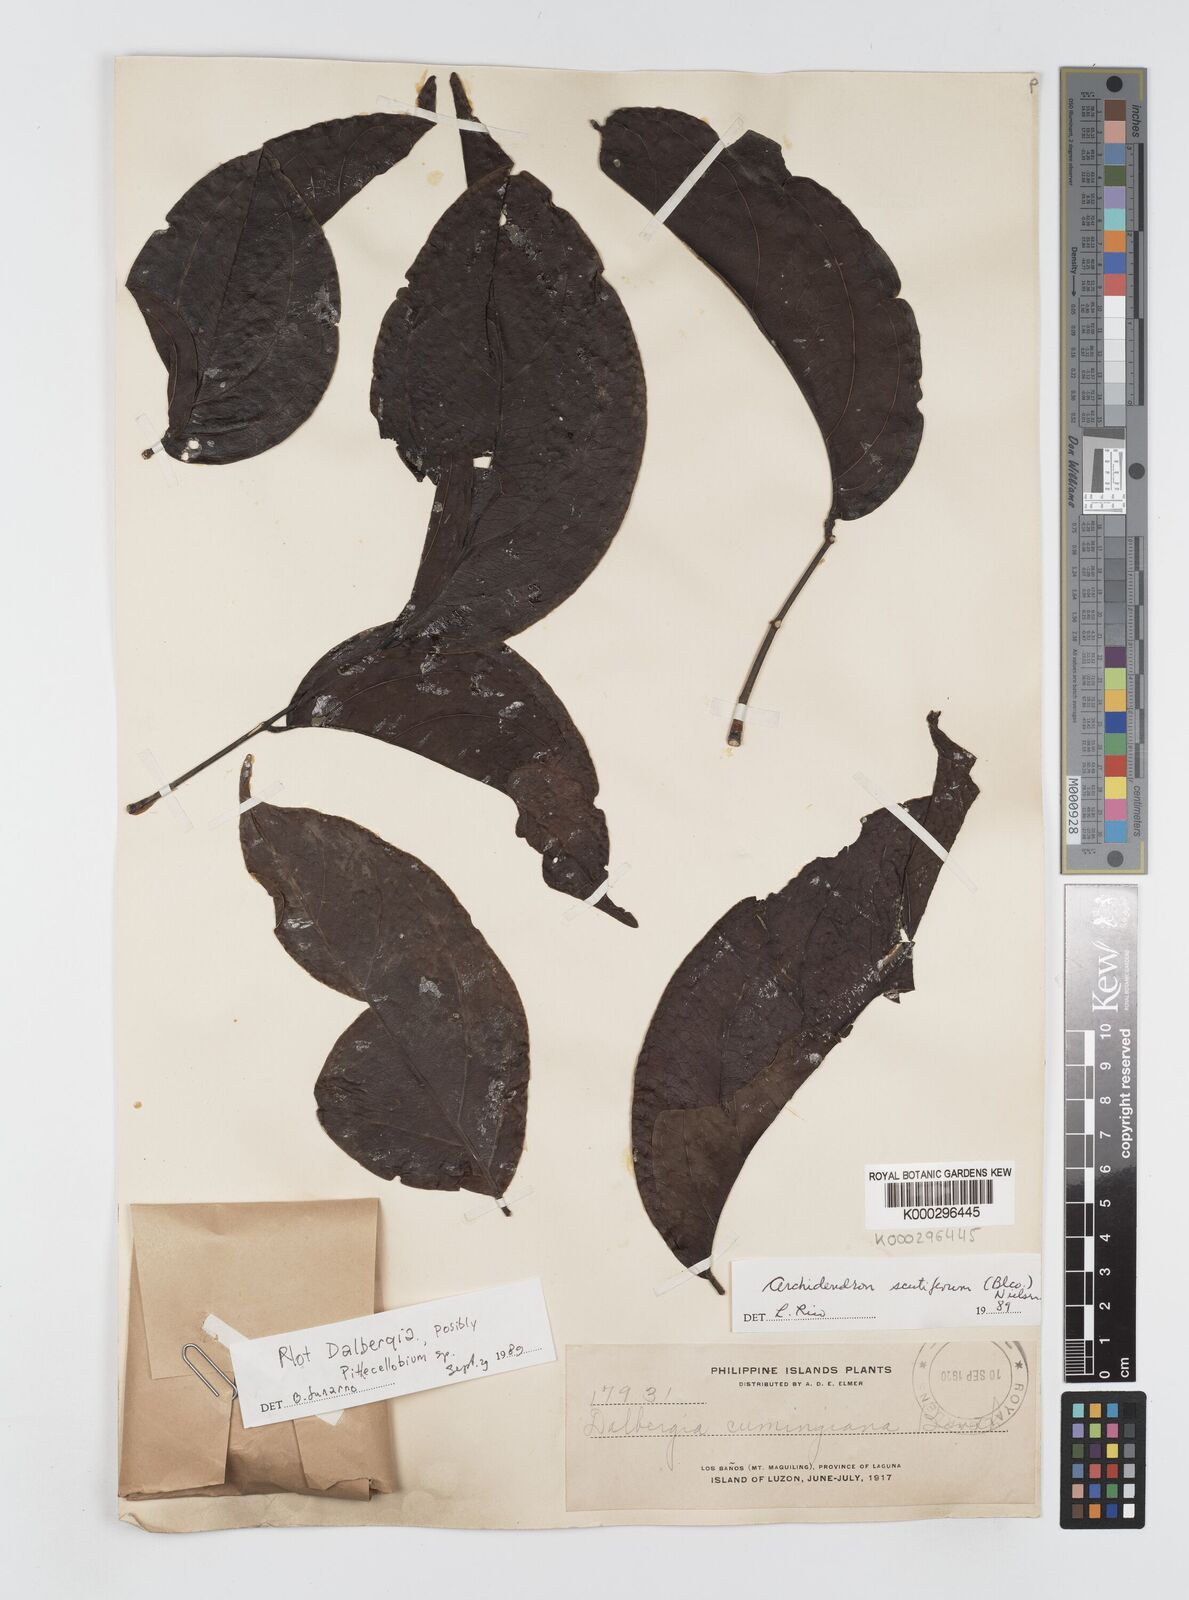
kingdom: Plantae
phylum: Tracheophyta
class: Magnoliopsida
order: Fabales
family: Fabaceae
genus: Archidendron
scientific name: Archidendron scutiferum
